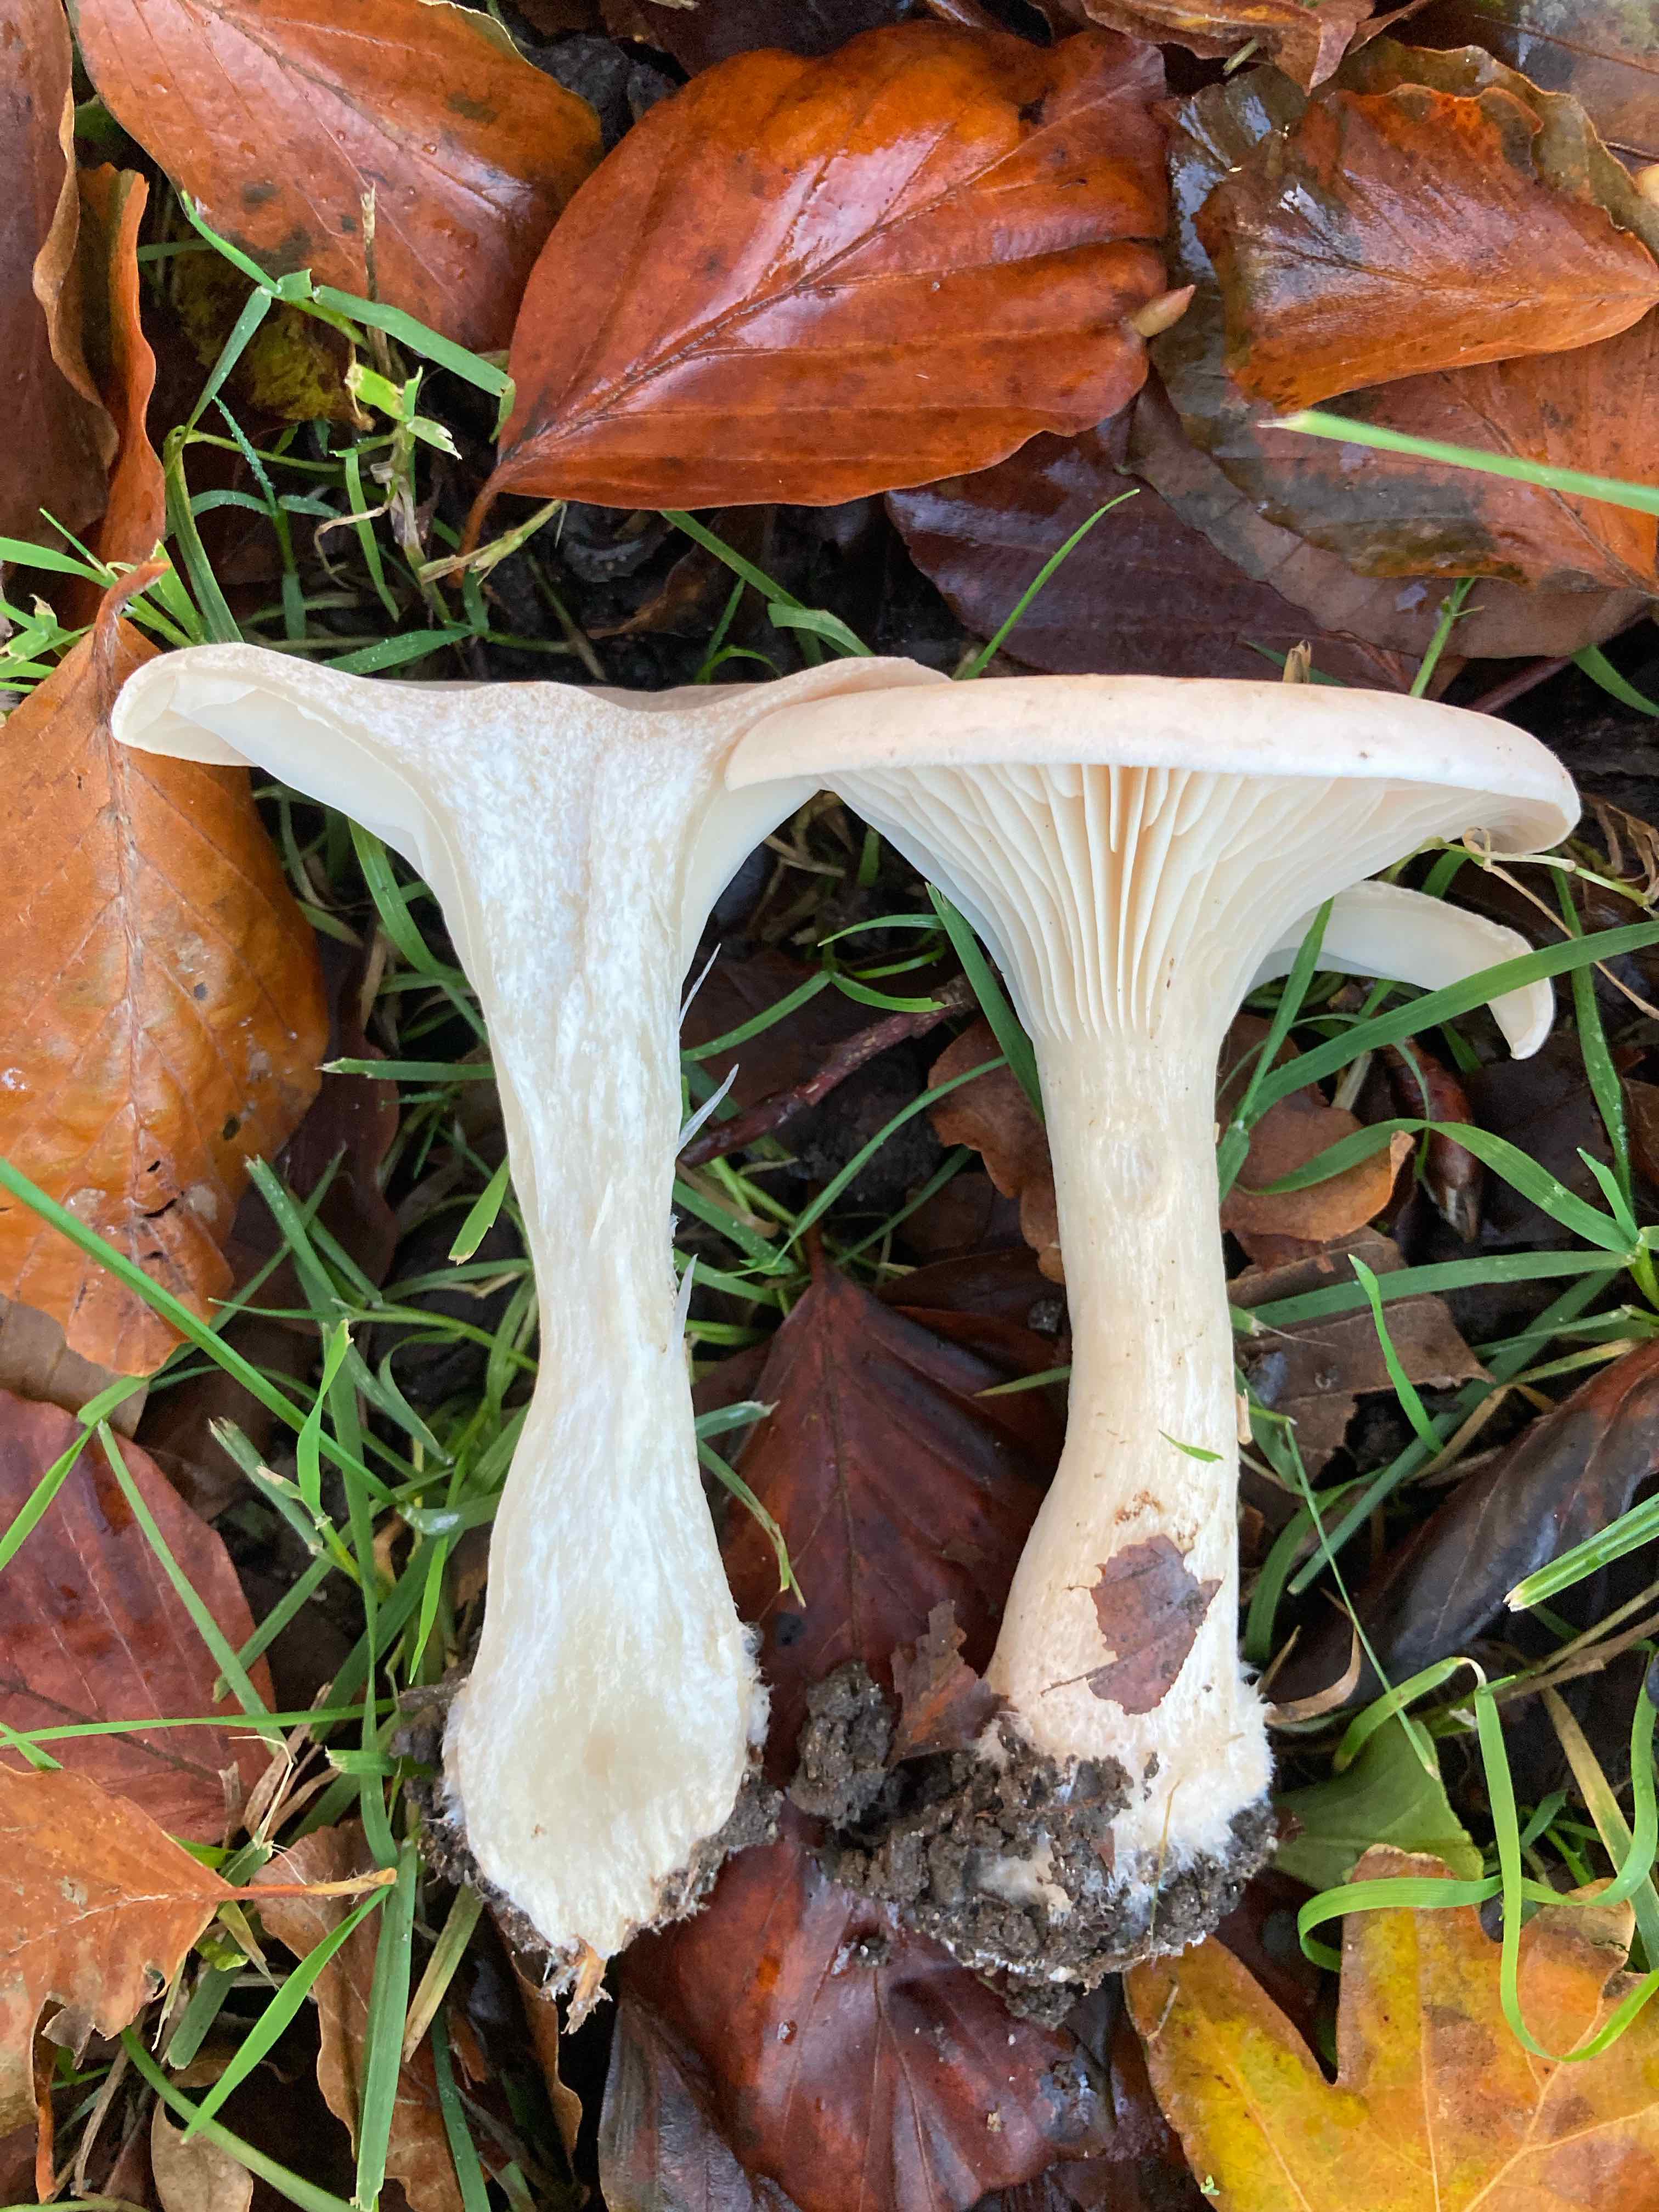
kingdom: Fungi
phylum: Basidiomycota
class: Agaricomycetes
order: Agaricales
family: Tricholomataceae
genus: Infundibulicybe
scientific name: Infundibulicybe geotropa
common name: stor tragthat
